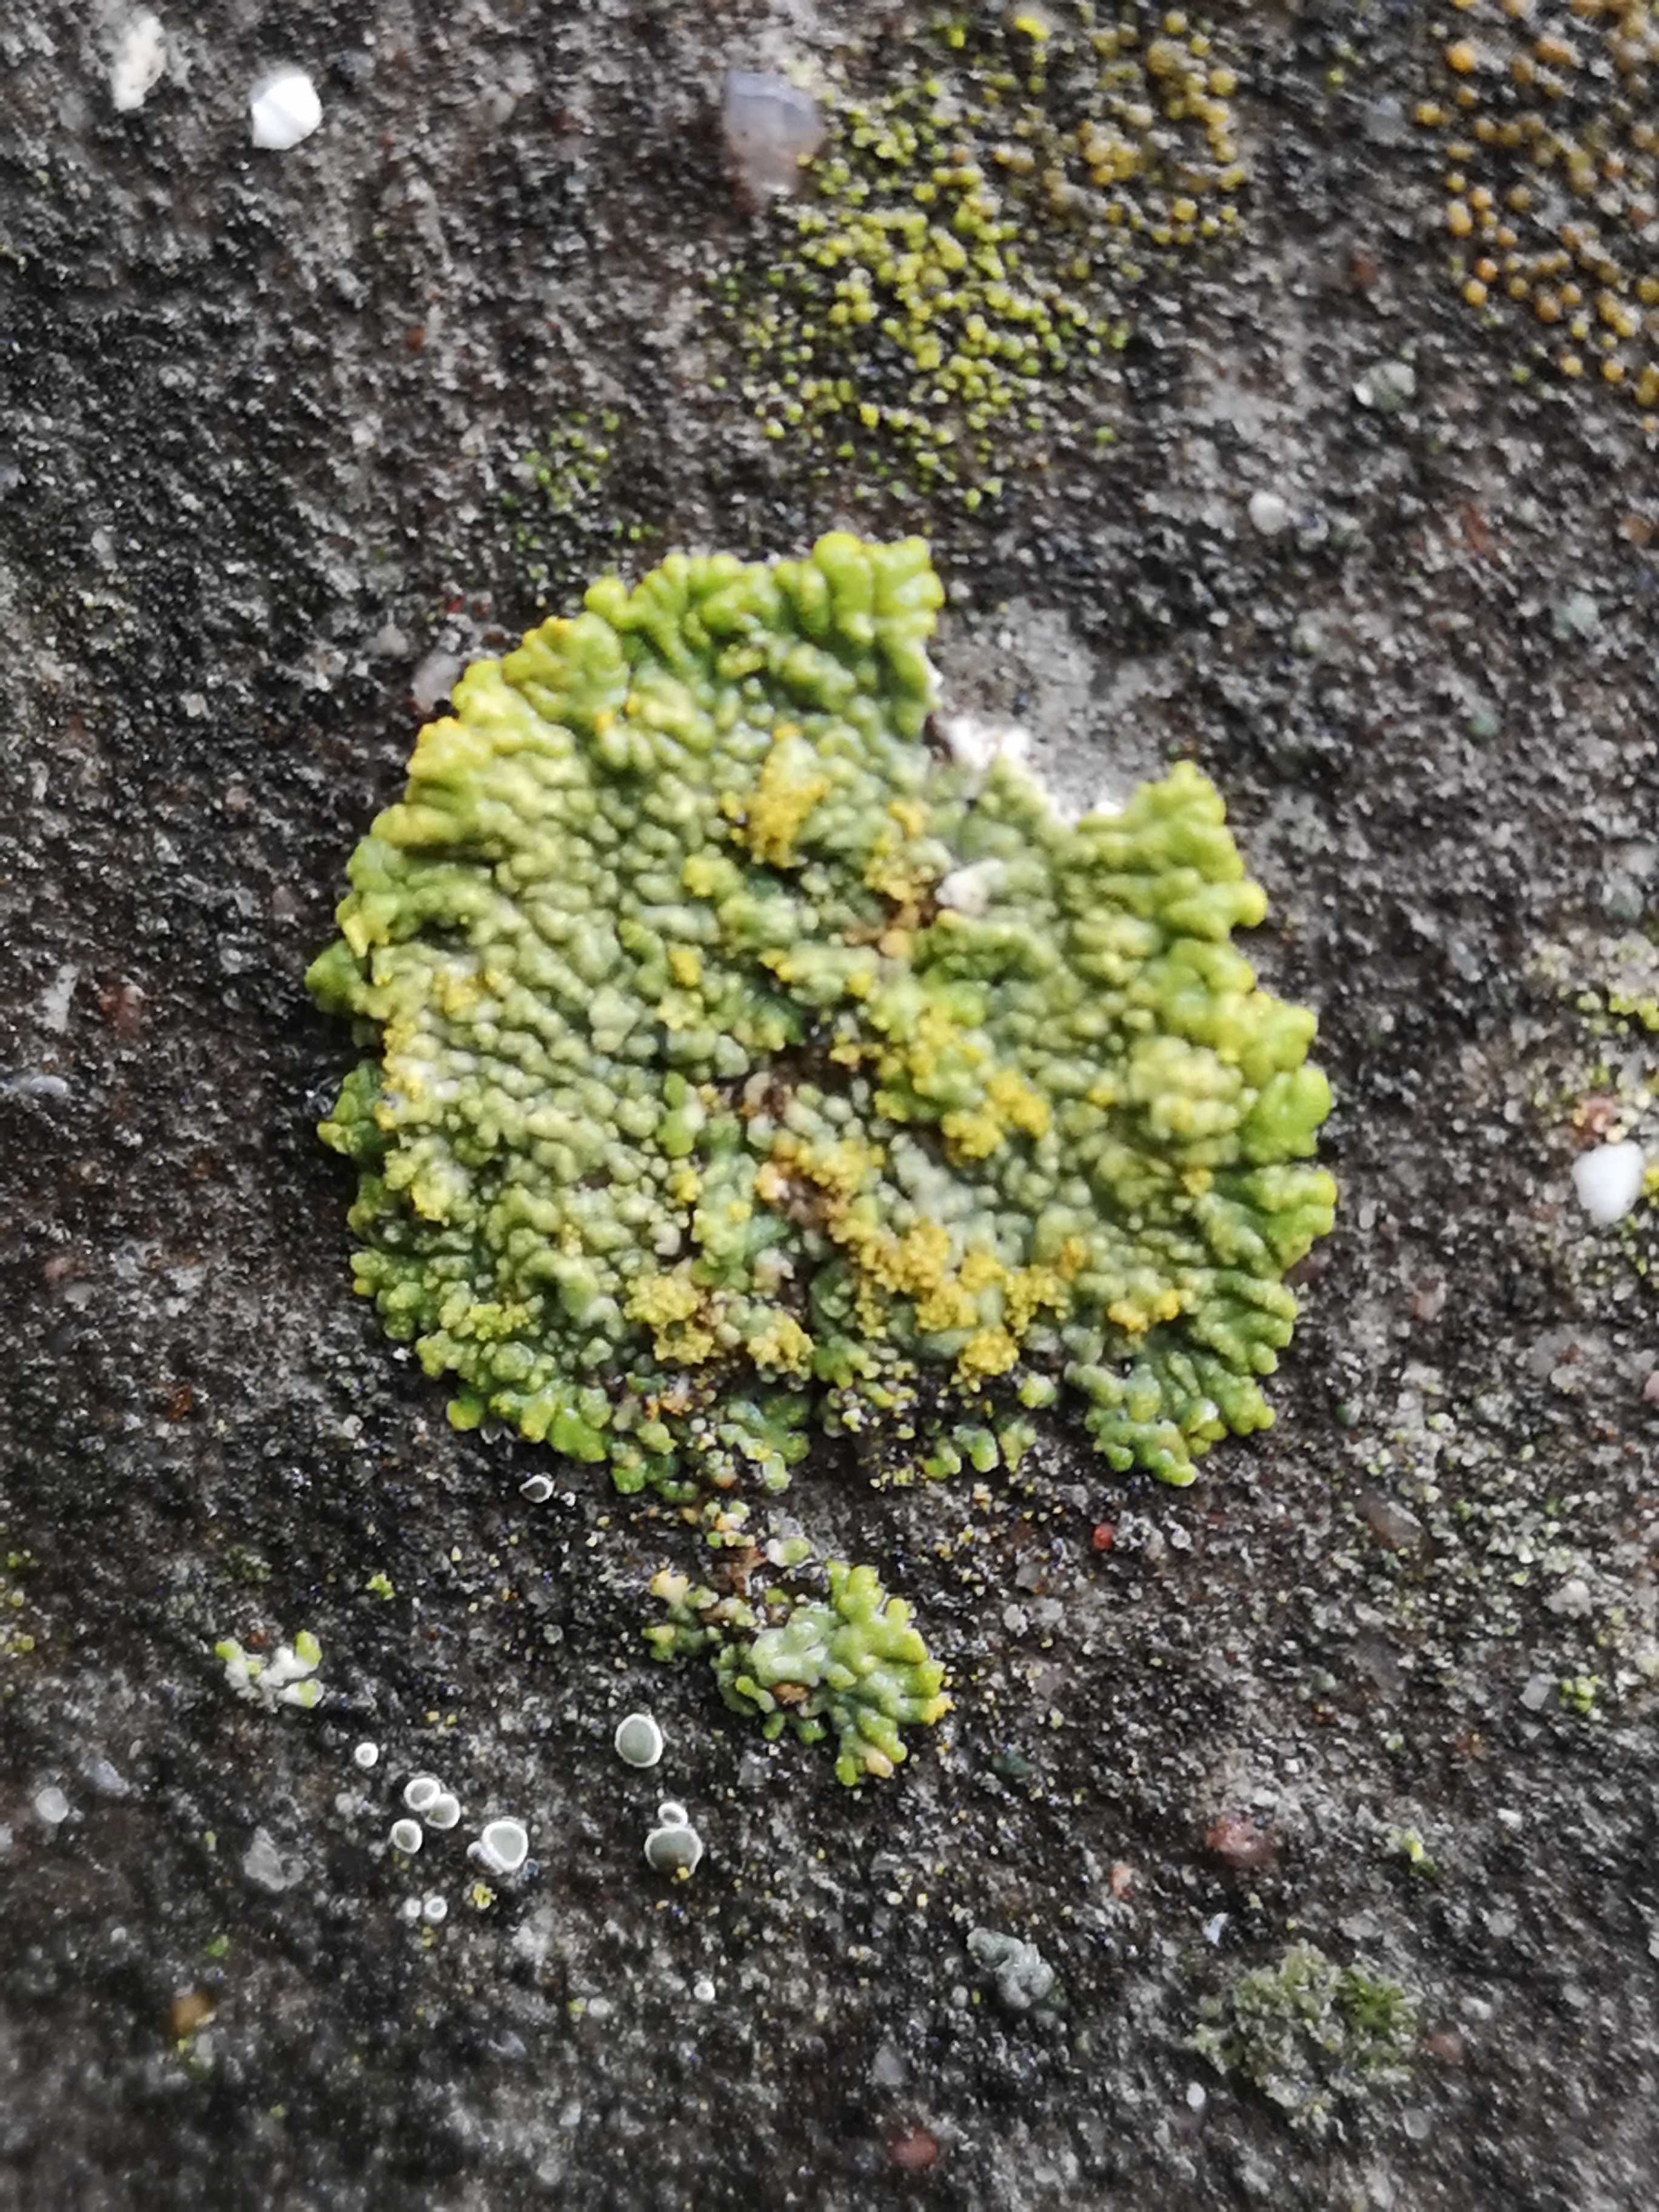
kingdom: Fungi
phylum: Ascomycota
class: Lecanoromycetes
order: Teloschistales
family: Teloschistaceae
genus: Calogaya
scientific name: Calogaya decipiens
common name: knudret orangelav
